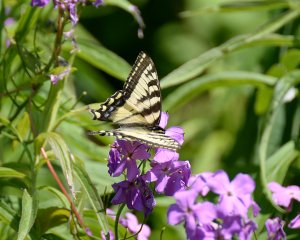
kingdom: Animalia
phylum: Arthropoda
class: Insecta
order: Lepidoptera
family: Papilionidae
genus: Pterourus
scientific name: Pterourus canadensis
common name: Canadian Tiger Swallowtail
